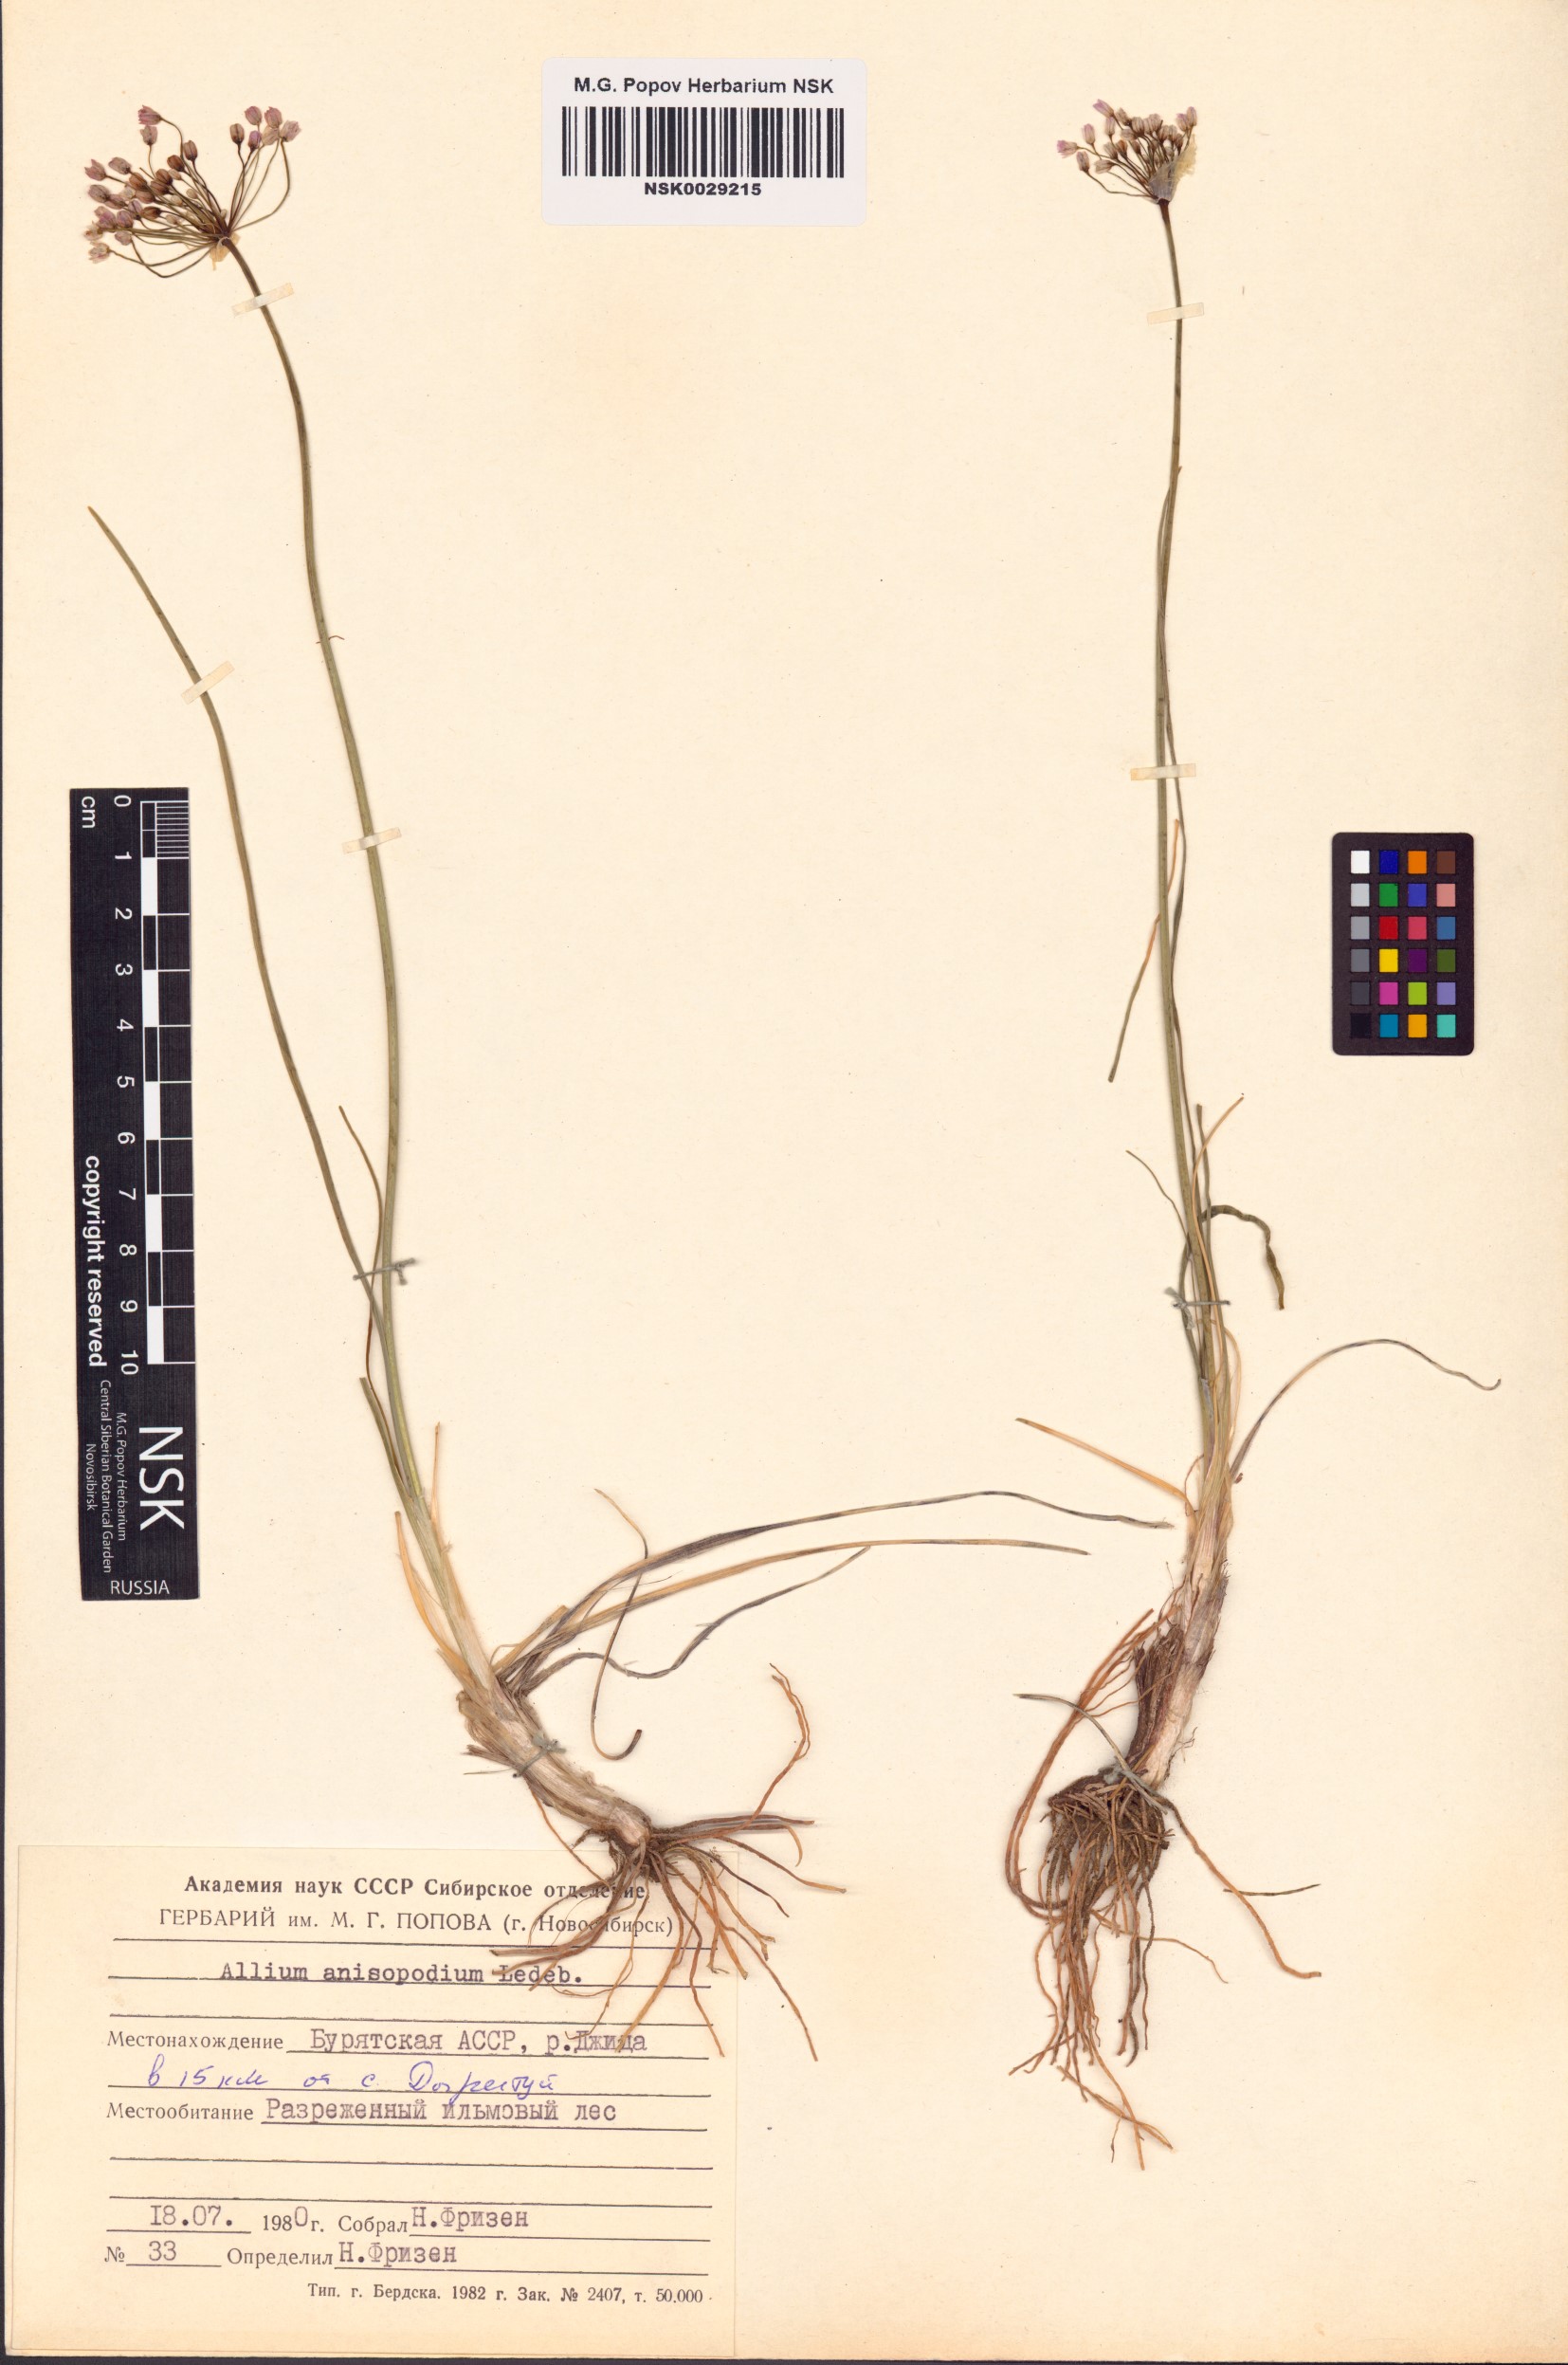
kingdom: Plantae
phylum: Tracheophyta
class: Liliopsida
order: Asparagales
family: Amaryllidaceae
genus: Allium
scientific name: Allium anisopodium
